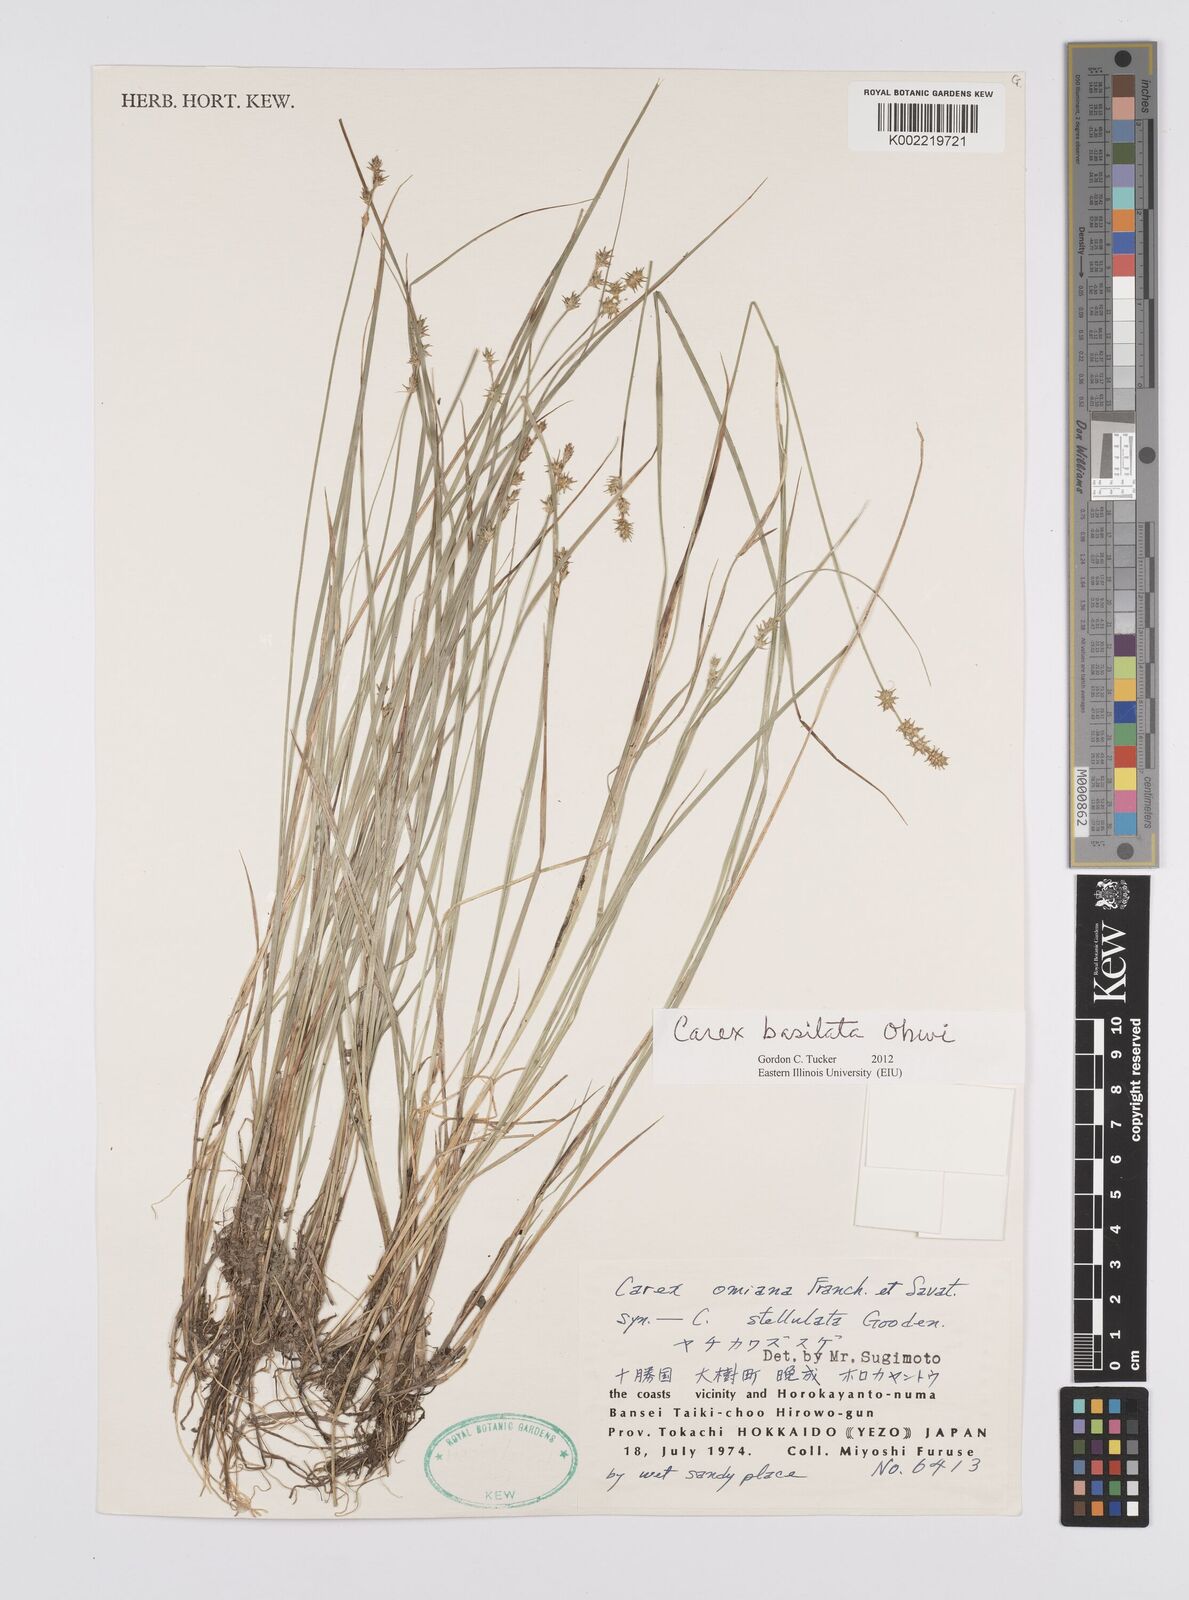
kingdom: Plantae
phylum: Tracheophyta
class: Liliopsida
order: Poales
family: Cyperaceae
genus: Carex
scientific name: Carex echinata
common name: Star sedge
